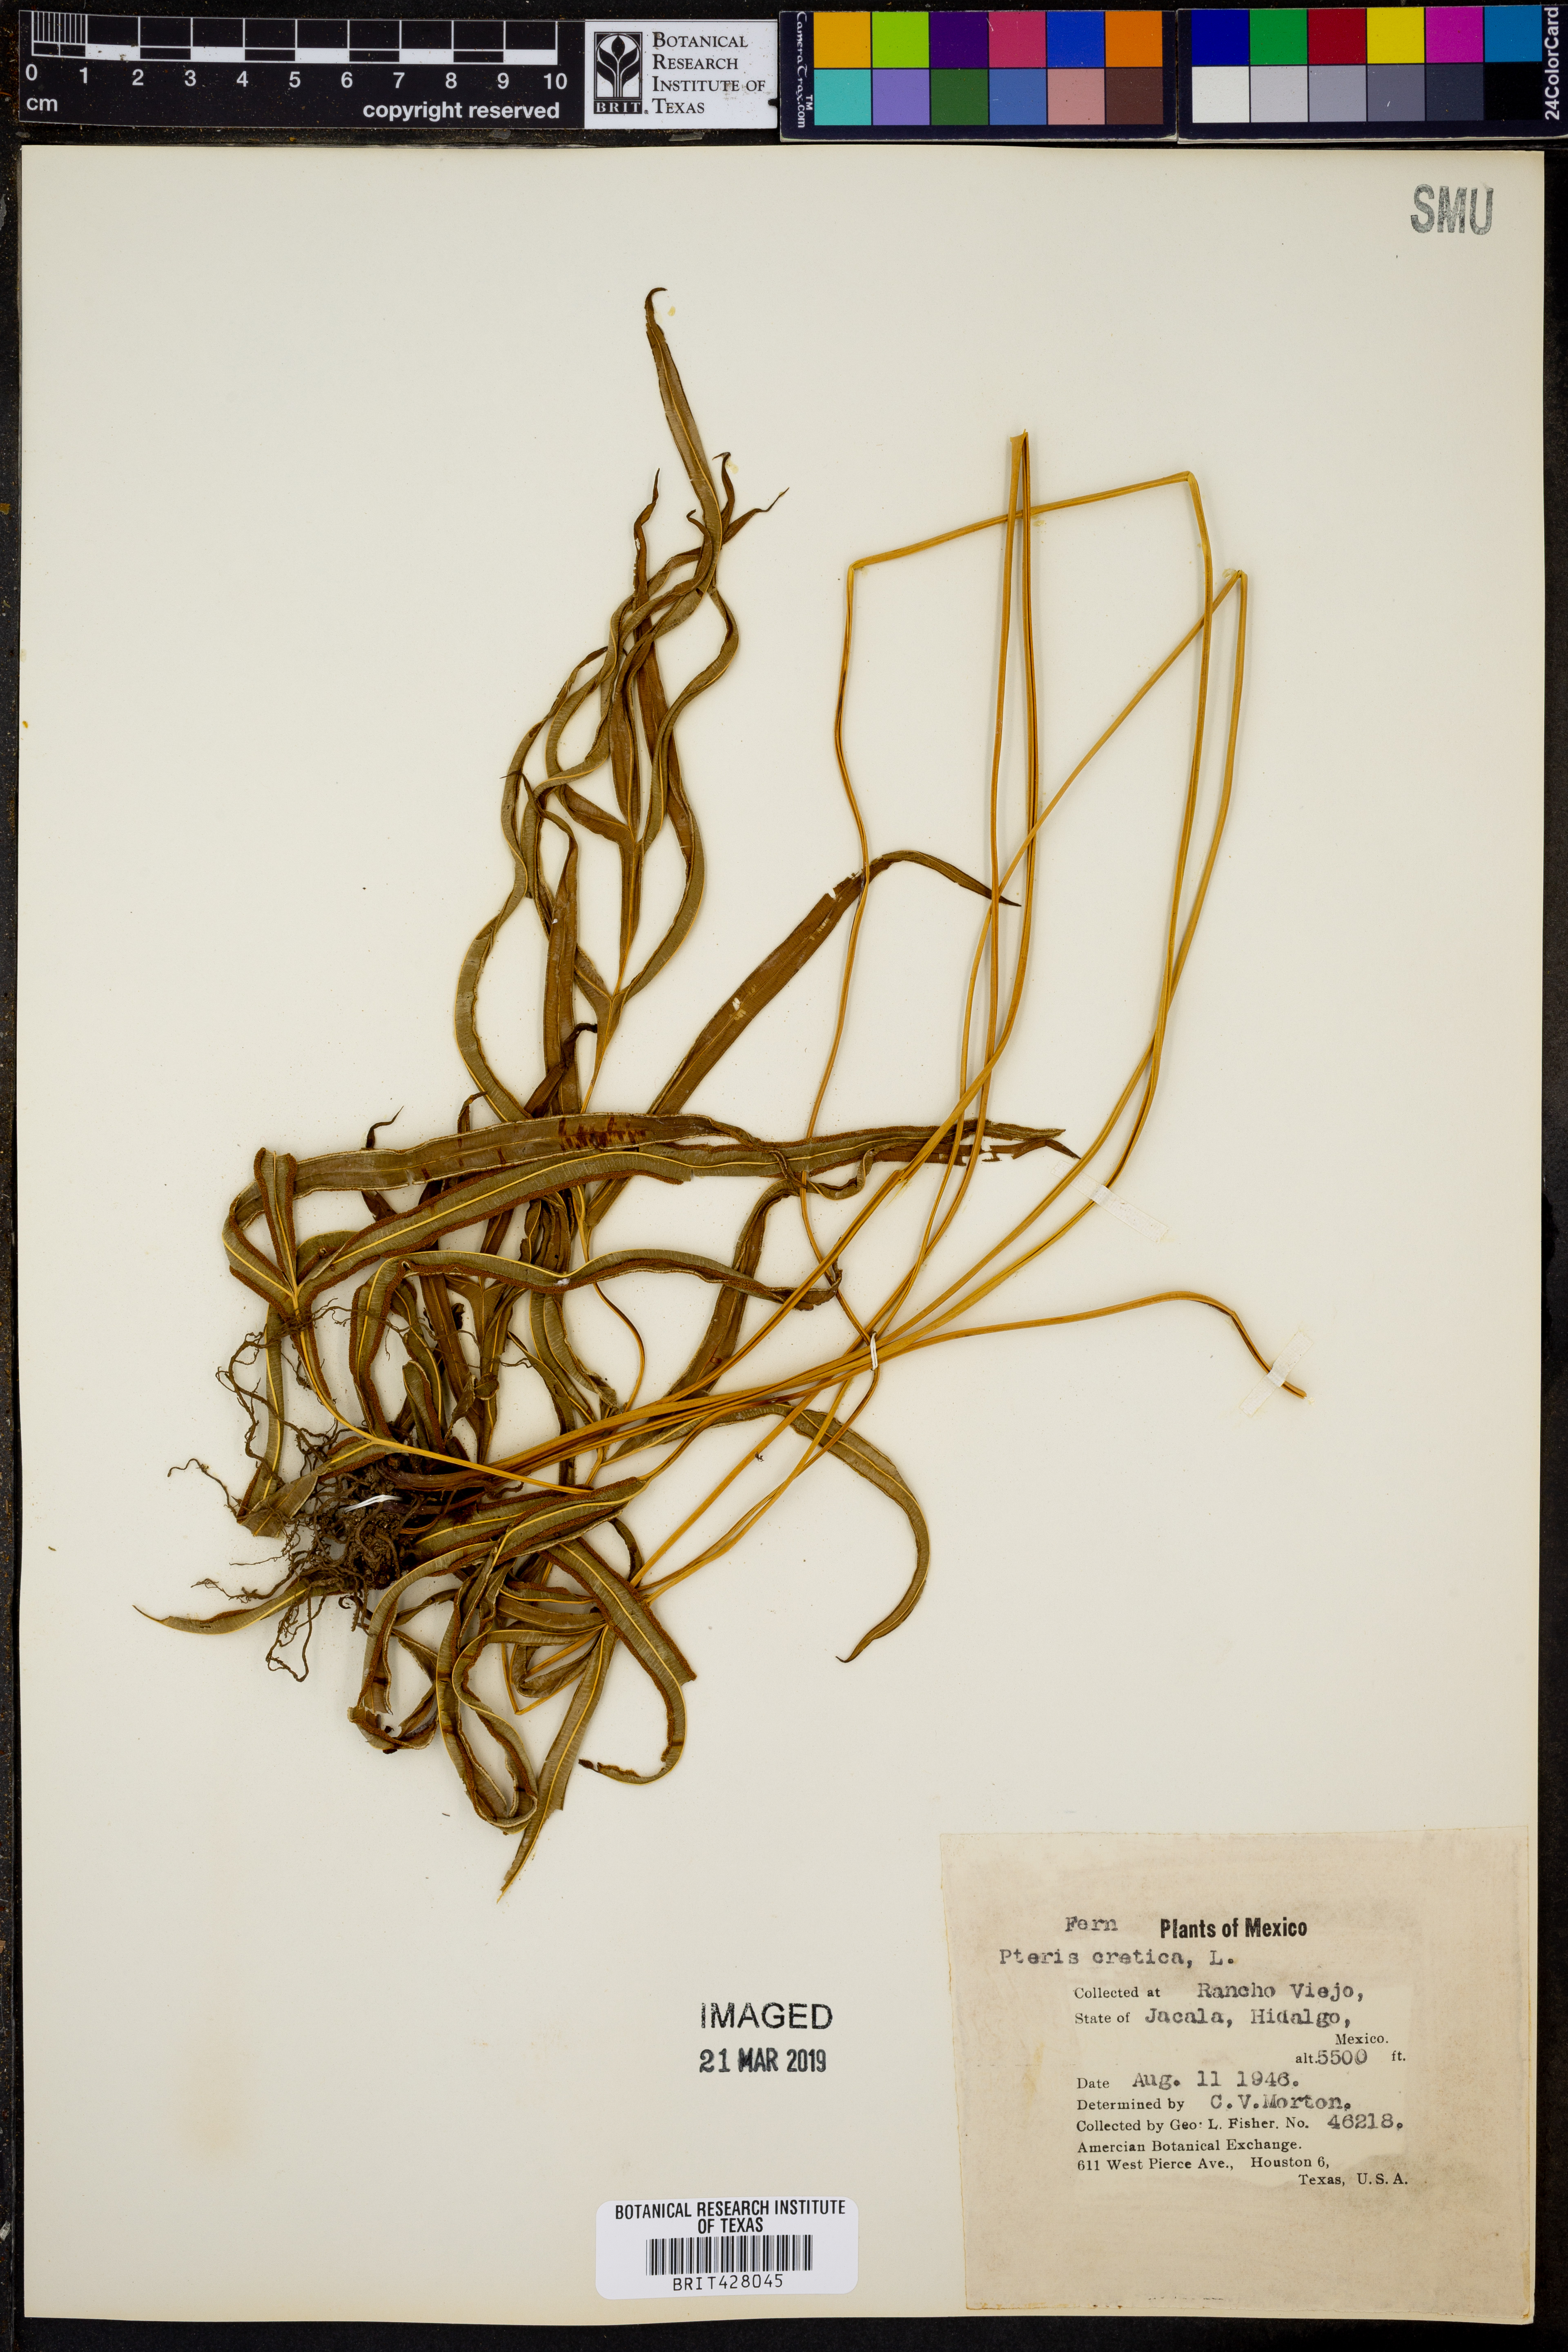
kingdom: Plantae
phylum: Tracheophyta
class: Polypodiopsida
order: Polypodiales
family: Pteridaceae
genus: Pteris
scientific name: Pteris cretica
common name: Ribbon fern
